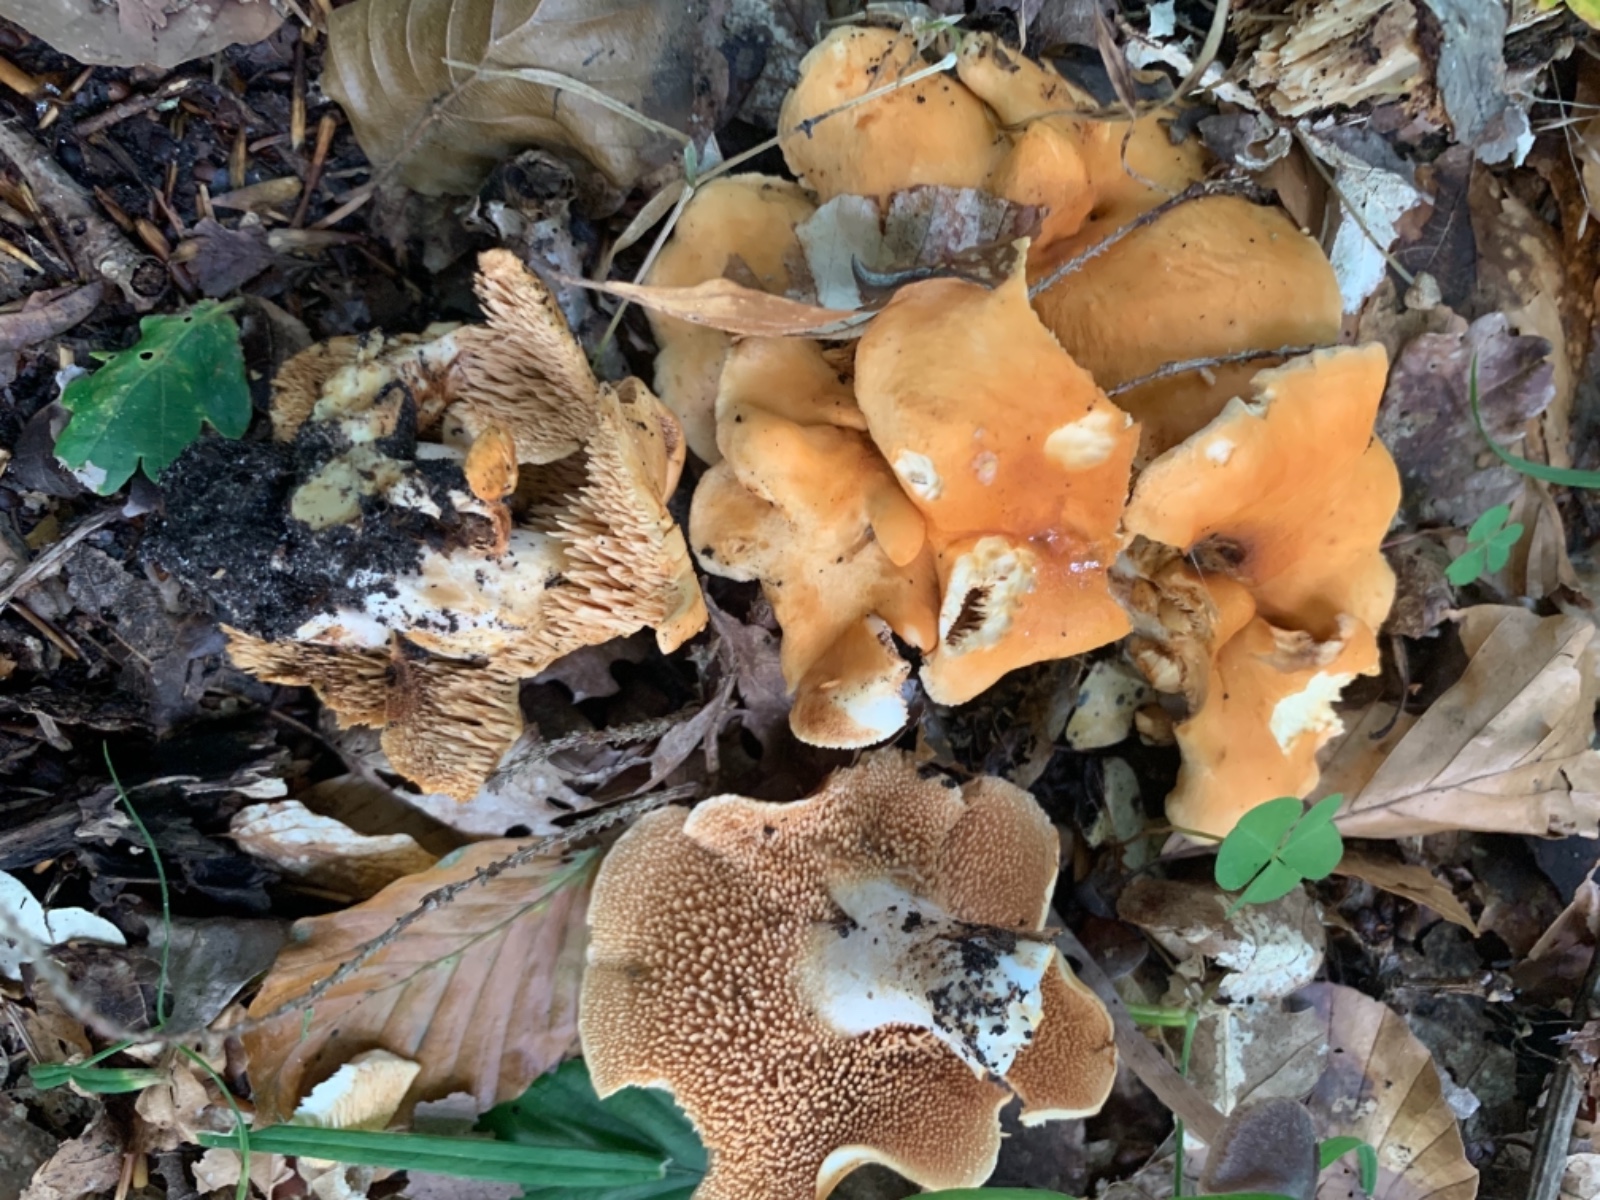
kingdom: Fungi
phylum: Basidiomycota
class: Agaricomycetes
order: Cantharellales
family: Hydnaceae
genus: Hydnum
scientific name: Hydnum rufescens
